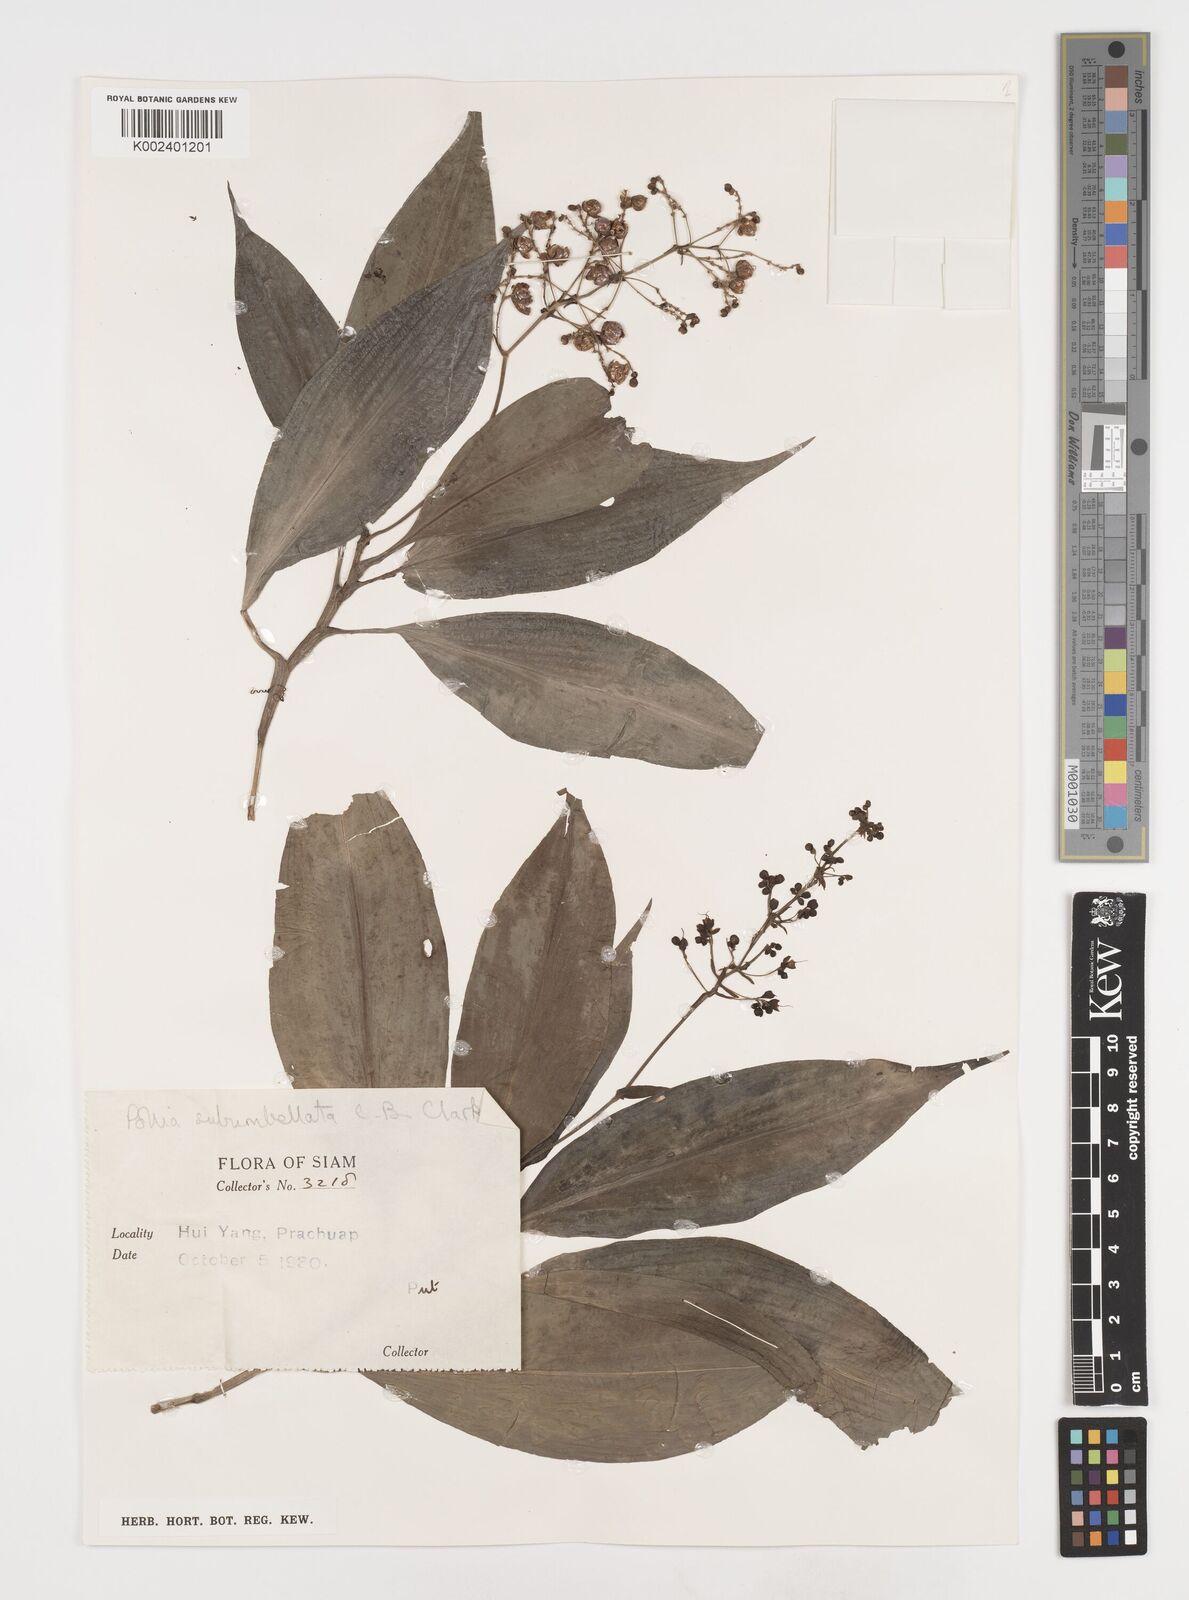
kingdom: Plantae
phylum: Tracheophyta
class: Liliopsida
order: Commelinales
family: Commelinaceae
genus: Pollia
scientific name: Pollia secundiflora
